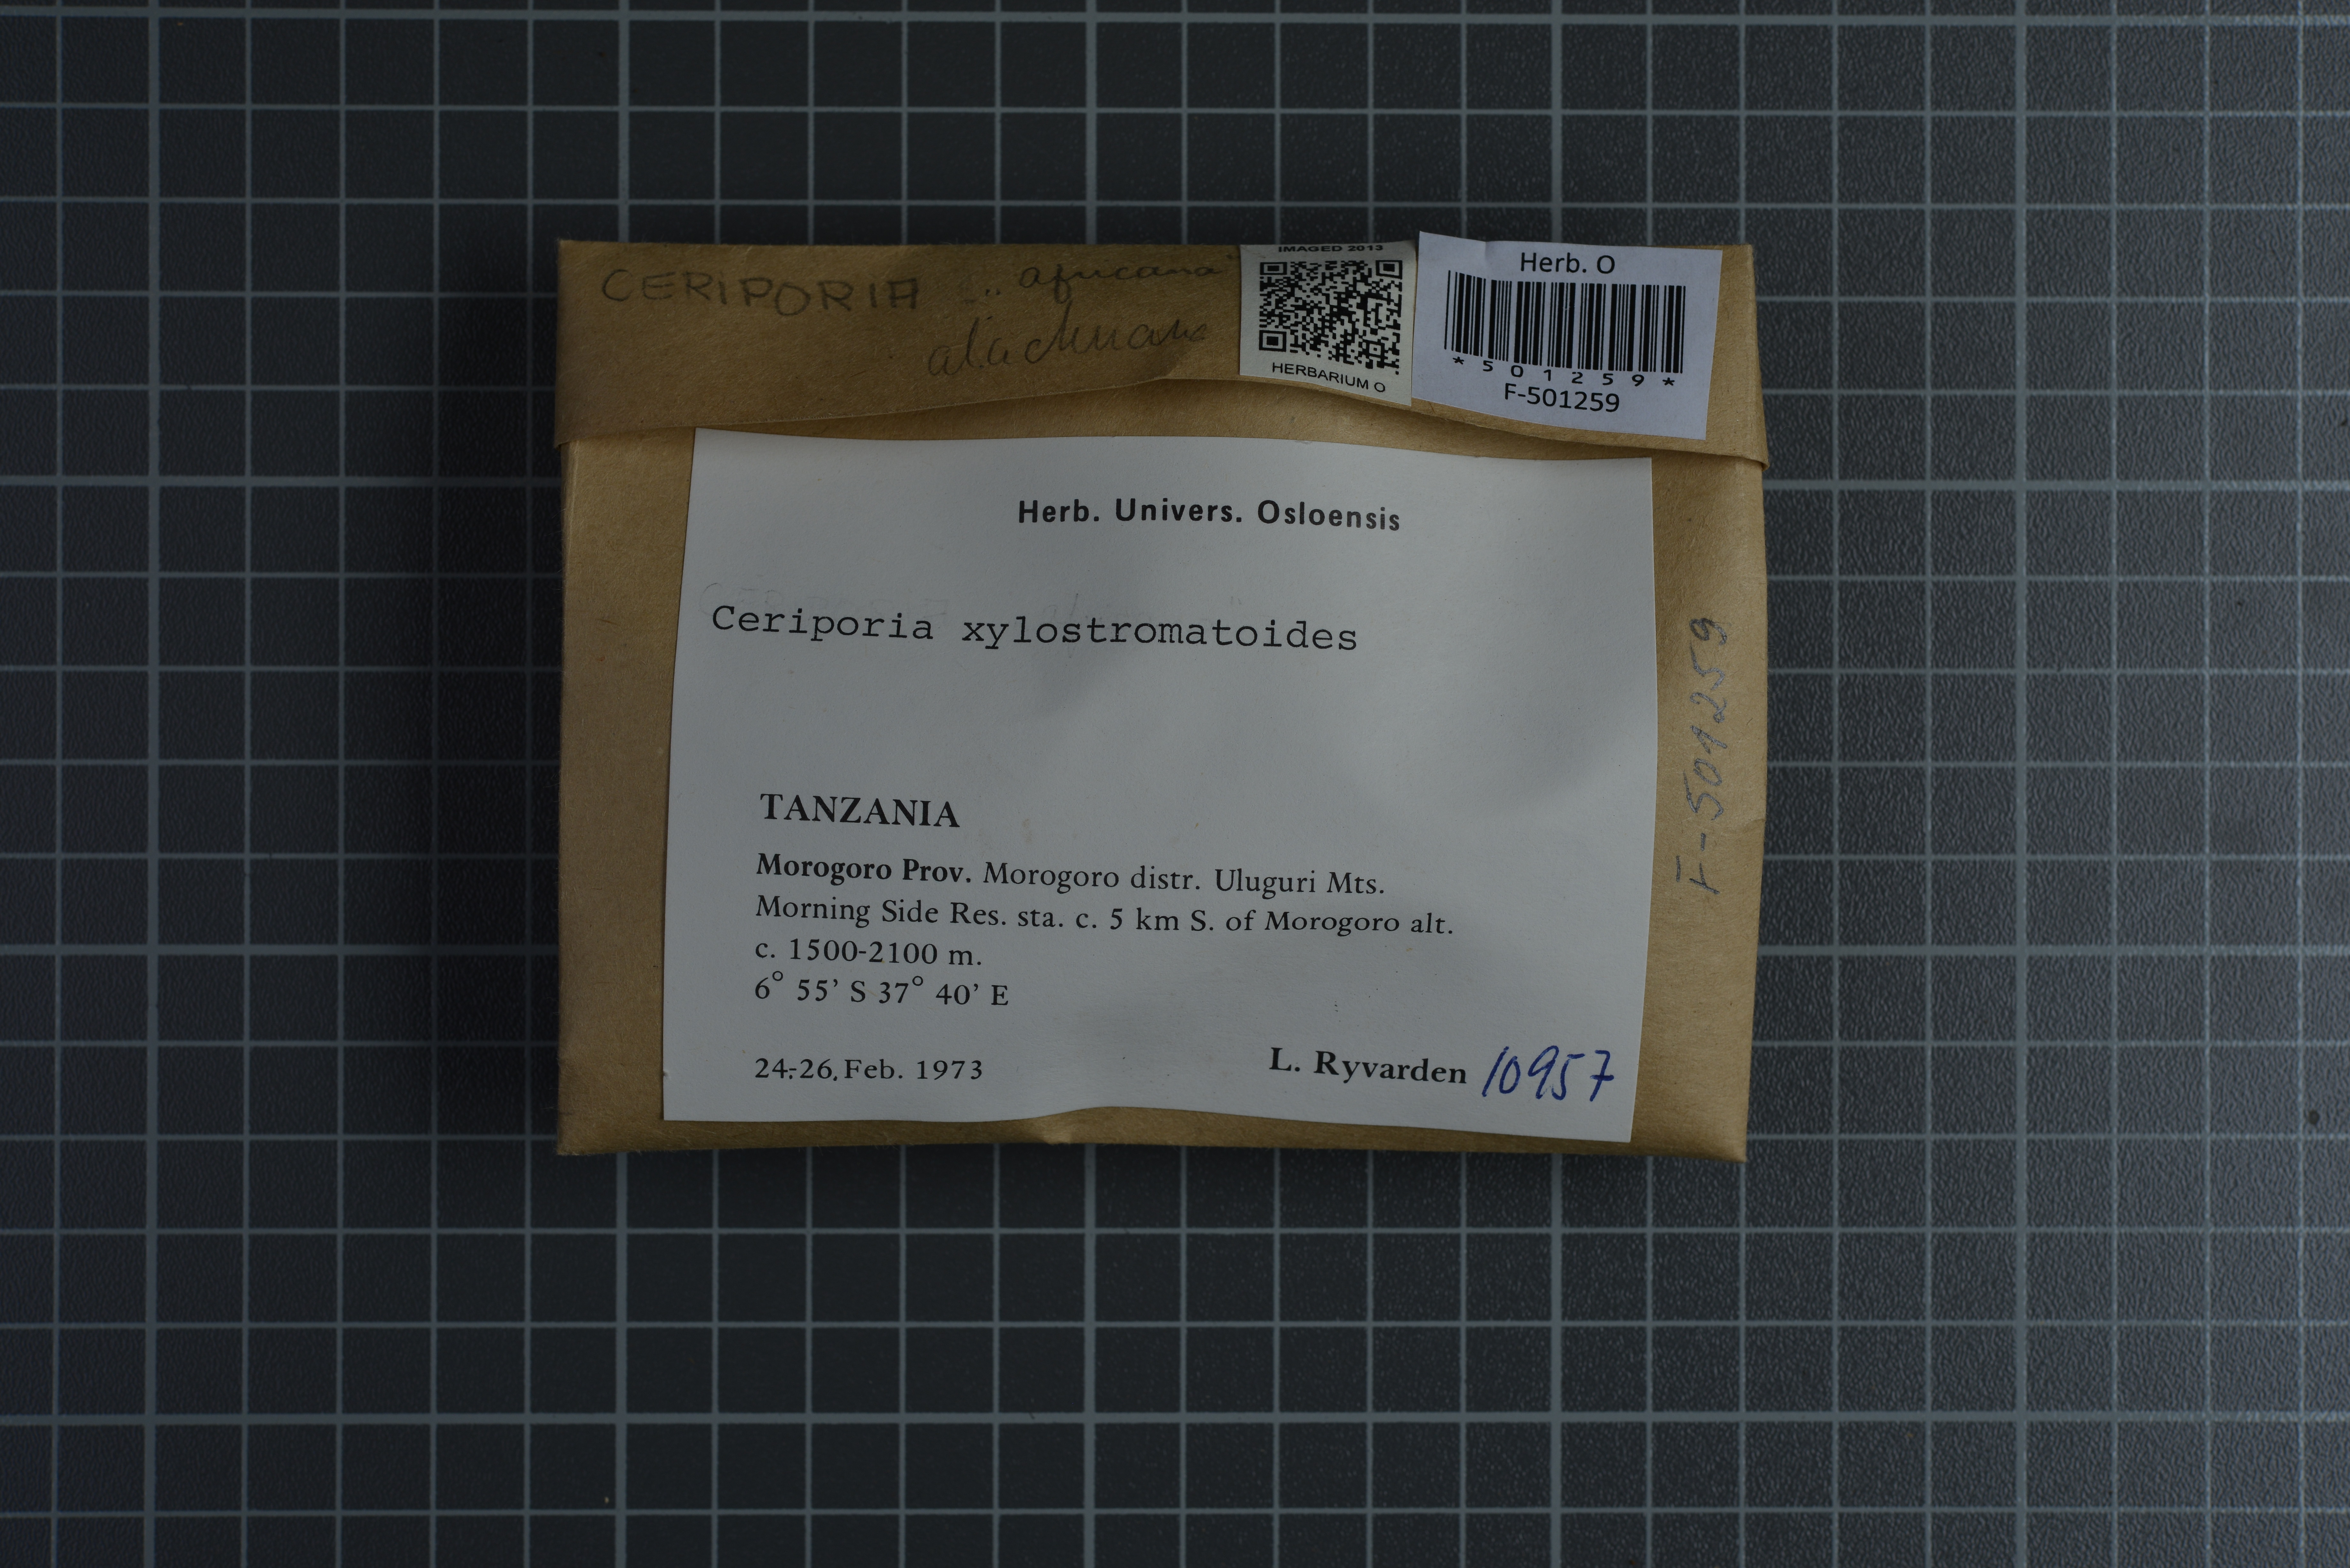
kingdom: Fungi
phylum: Basidiomycota
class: Agaricomycetes
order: Polyporales
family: Irpicaceae
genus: Ceriporia
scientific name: Ceriporia xylostromatoides
